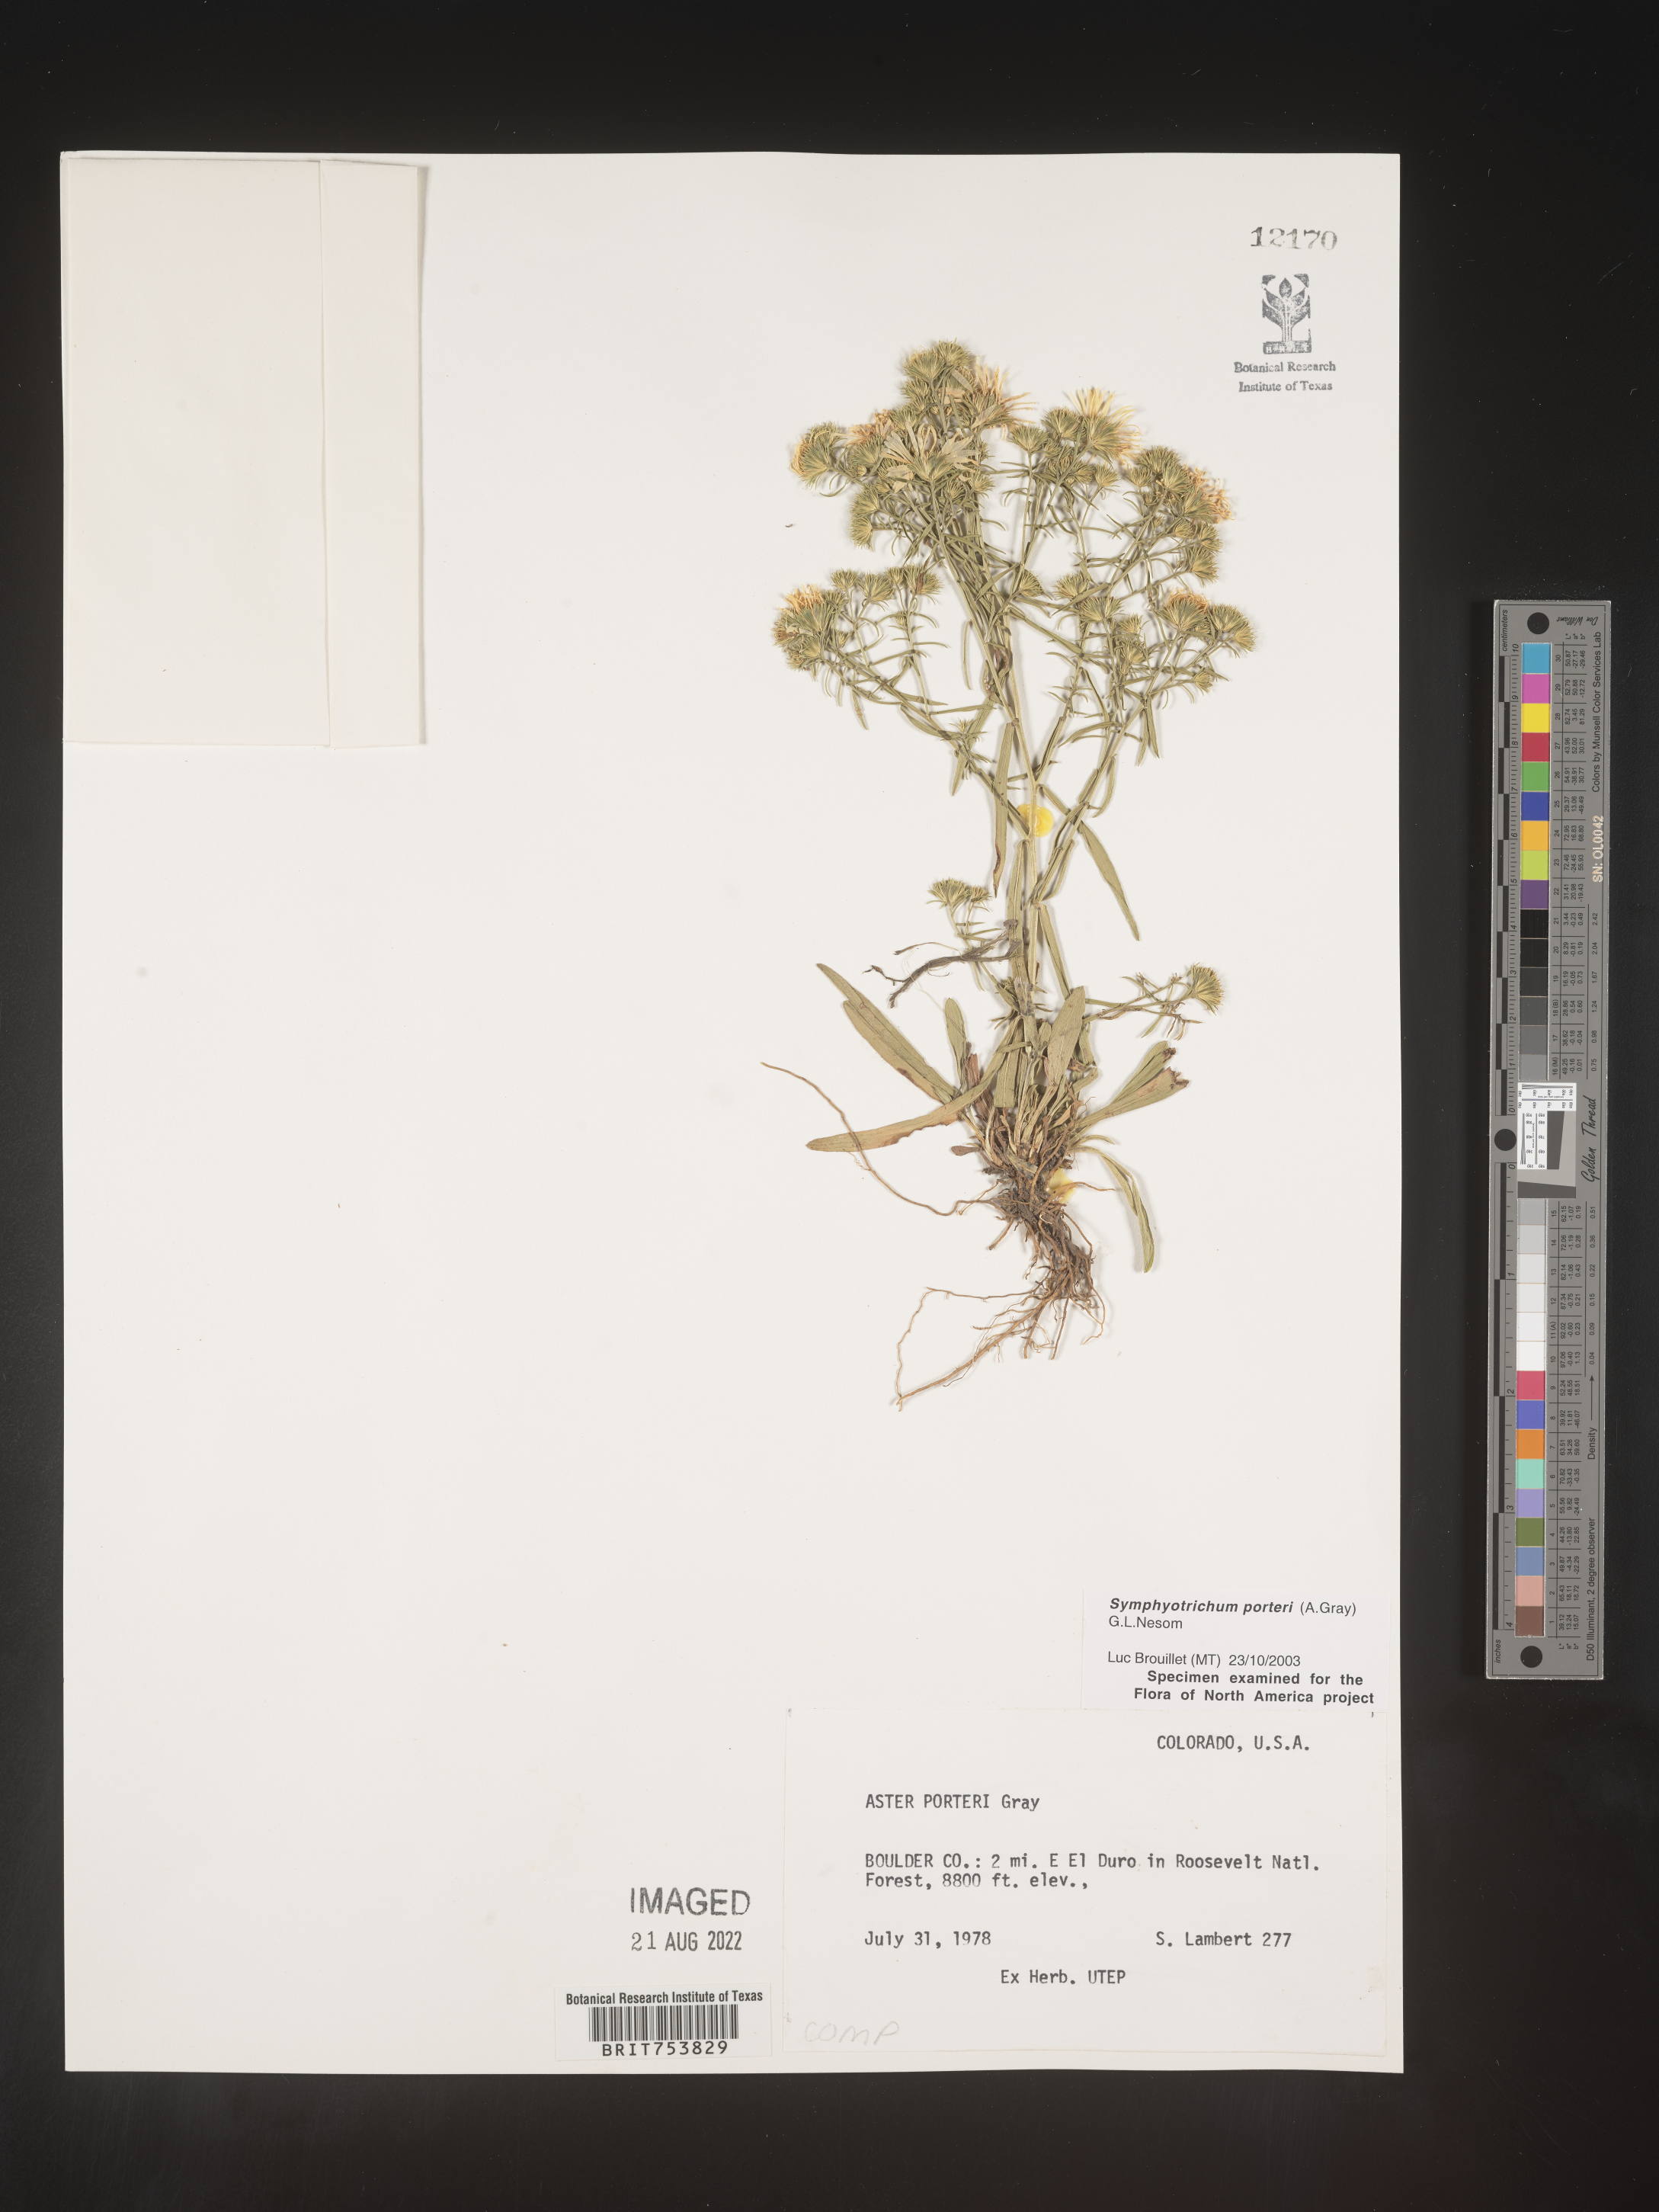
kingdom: Plantae
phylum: Tracheophyta
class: Magnoliopsida
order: Asterales
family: Asteraceae
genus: Symphyotrichum
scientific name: Symphyotrichum porteri
